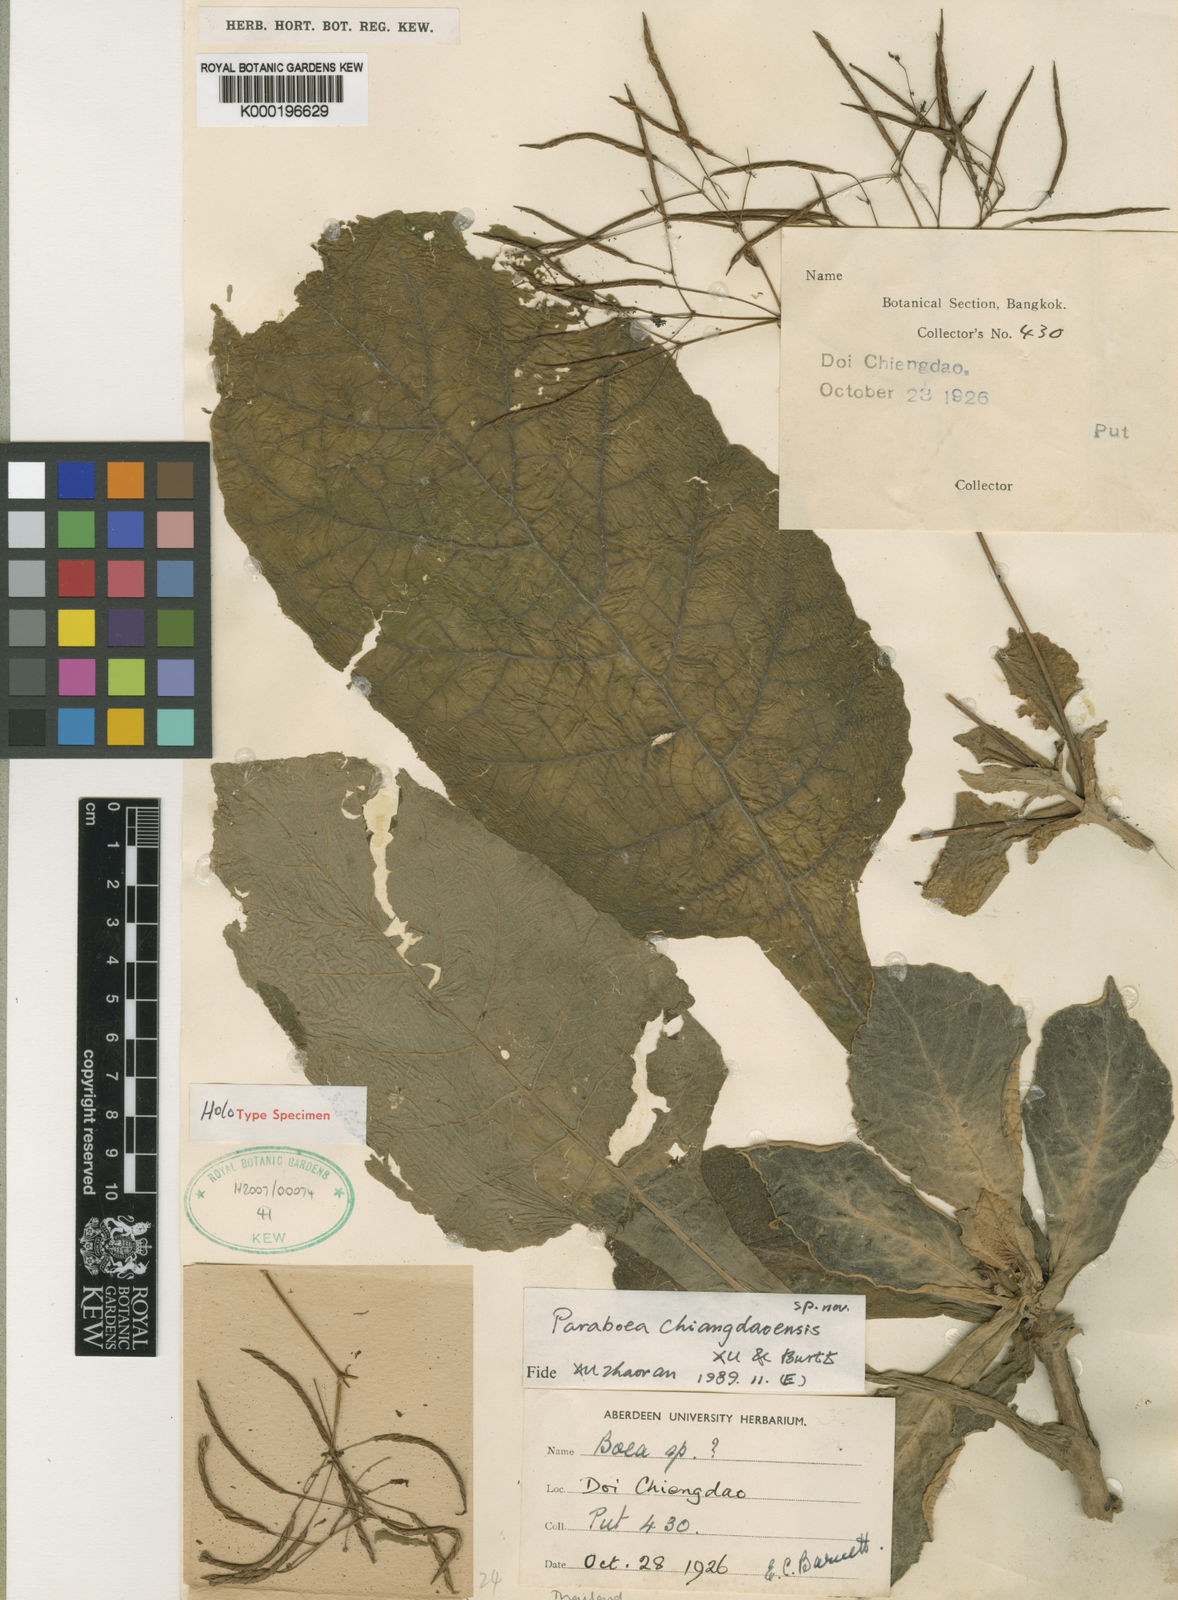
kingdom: Plantae
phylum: Tracheophyta
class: Magnoliopsida
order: Lamiales
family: Gesneriaceae
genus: Paraboea
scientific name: Paraboea chiangdaoensis
